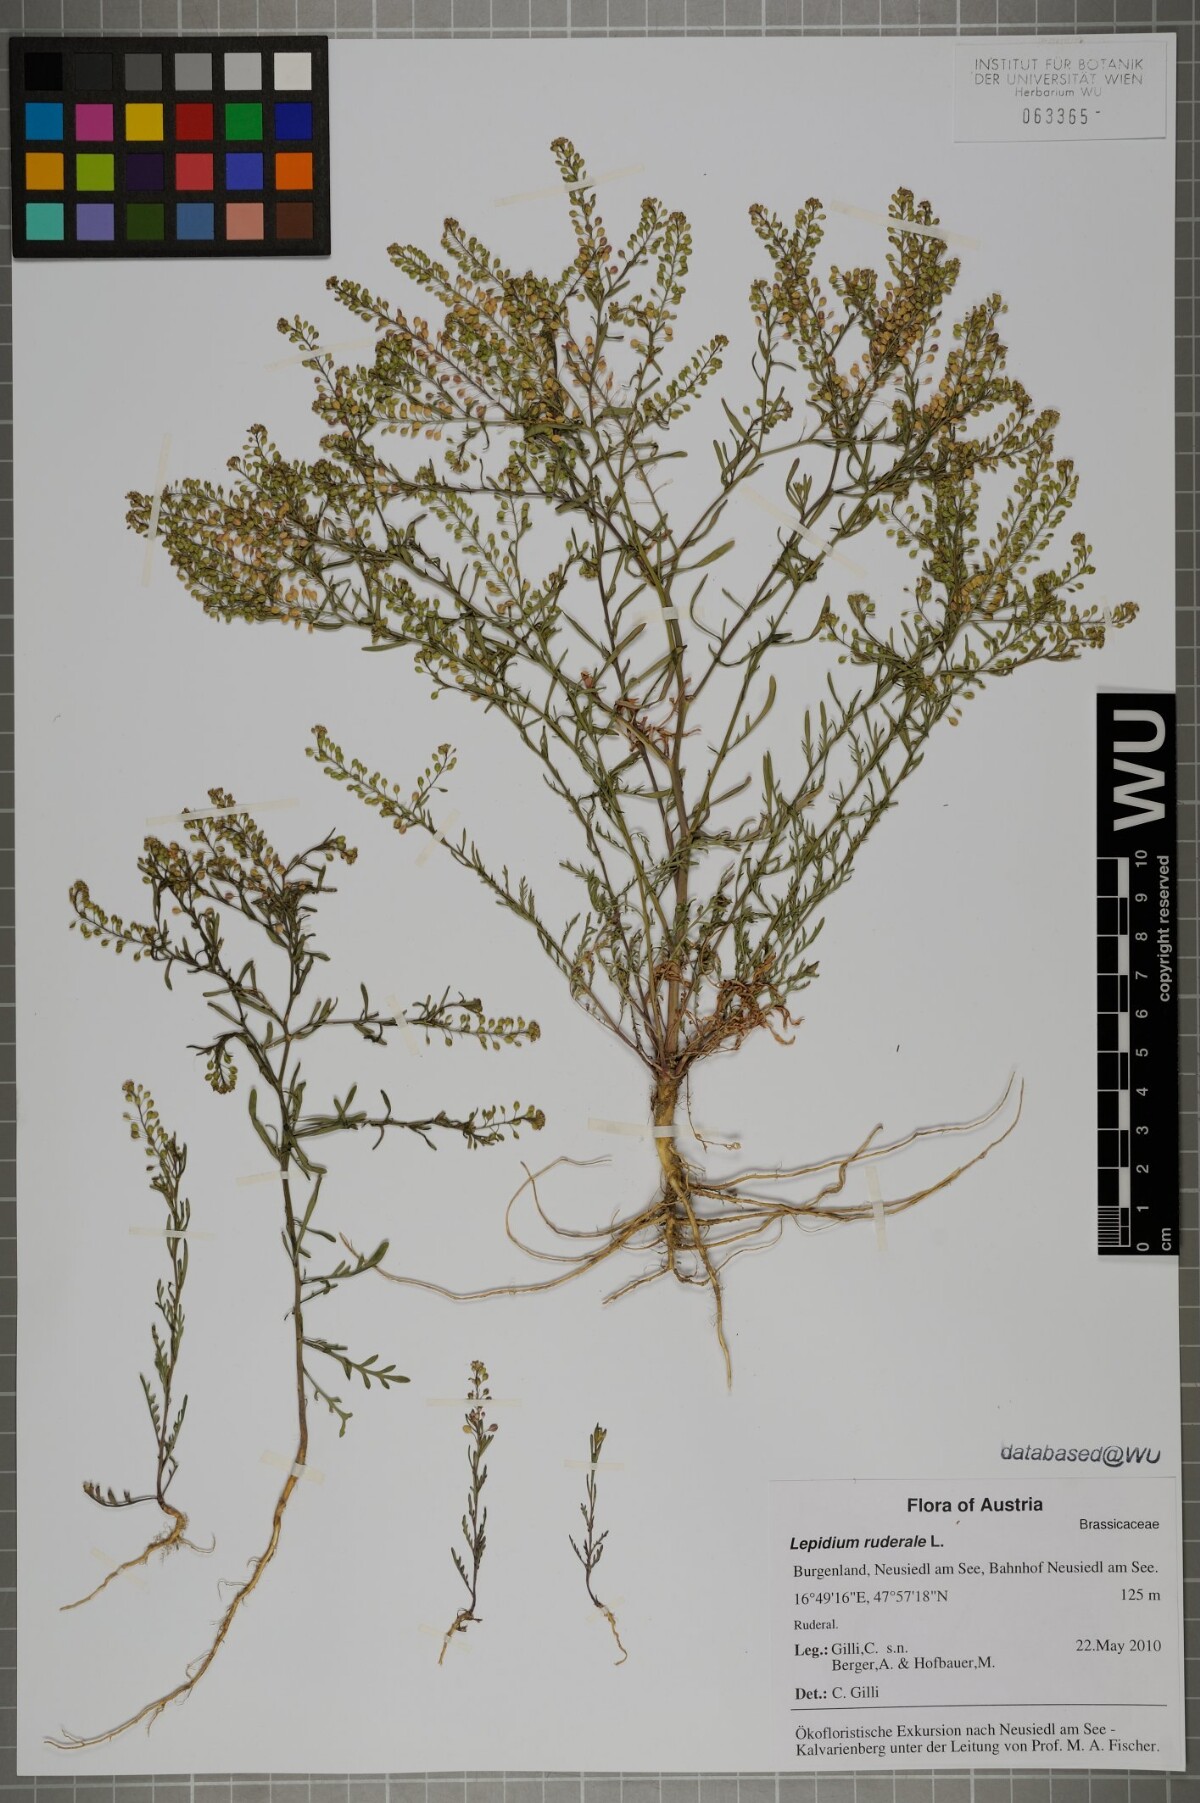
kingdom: Plantae
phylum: Tracheophyta
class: Magnoliopsida
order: Brassicales
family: Brassicaceae
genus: Lepidium
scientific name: Lepidium ruderale
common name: Narrow-leaved pepperwort
